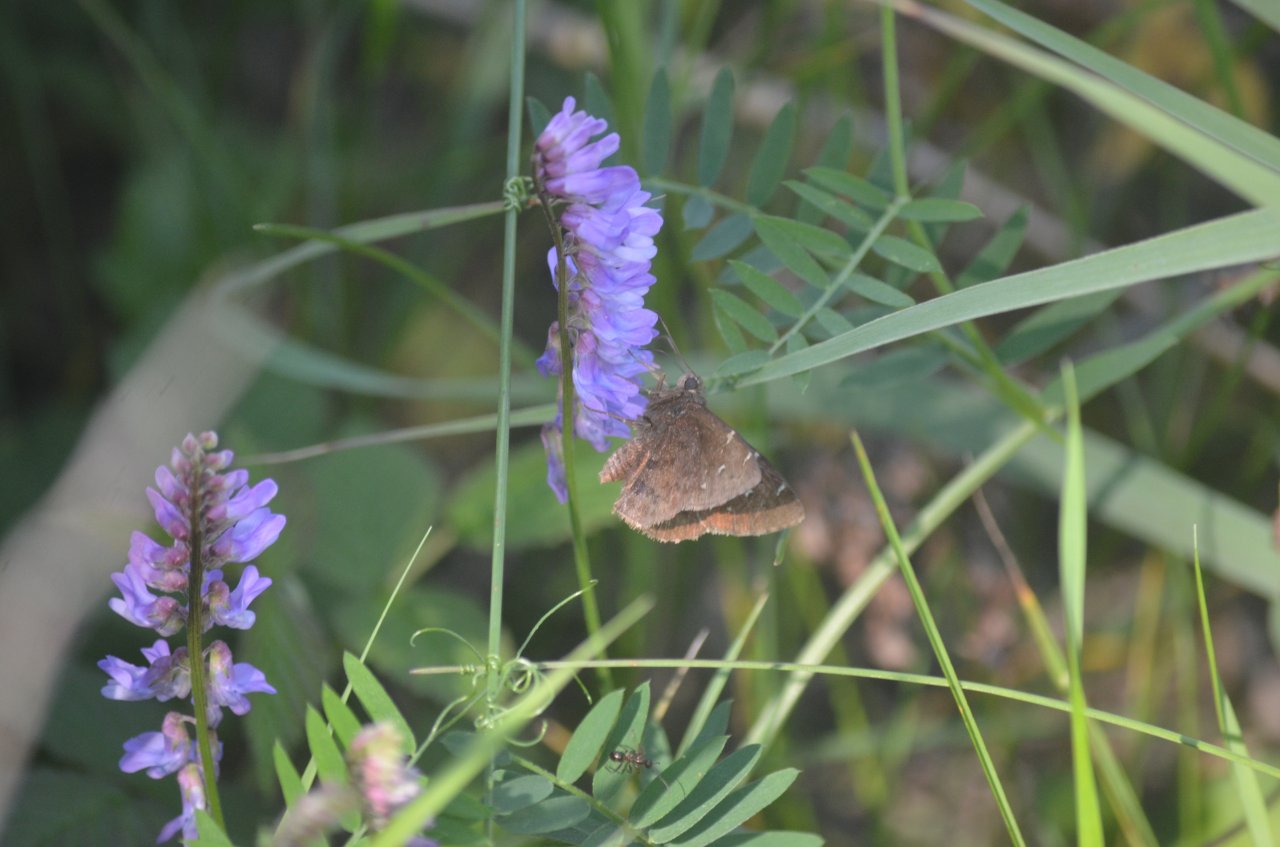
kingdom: Animalia
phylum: Arthropoda
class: Insecta
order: Lepidoptera
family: Hesperiidae
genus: Autochton
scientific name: Autochton
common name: Northern Cloudywing
